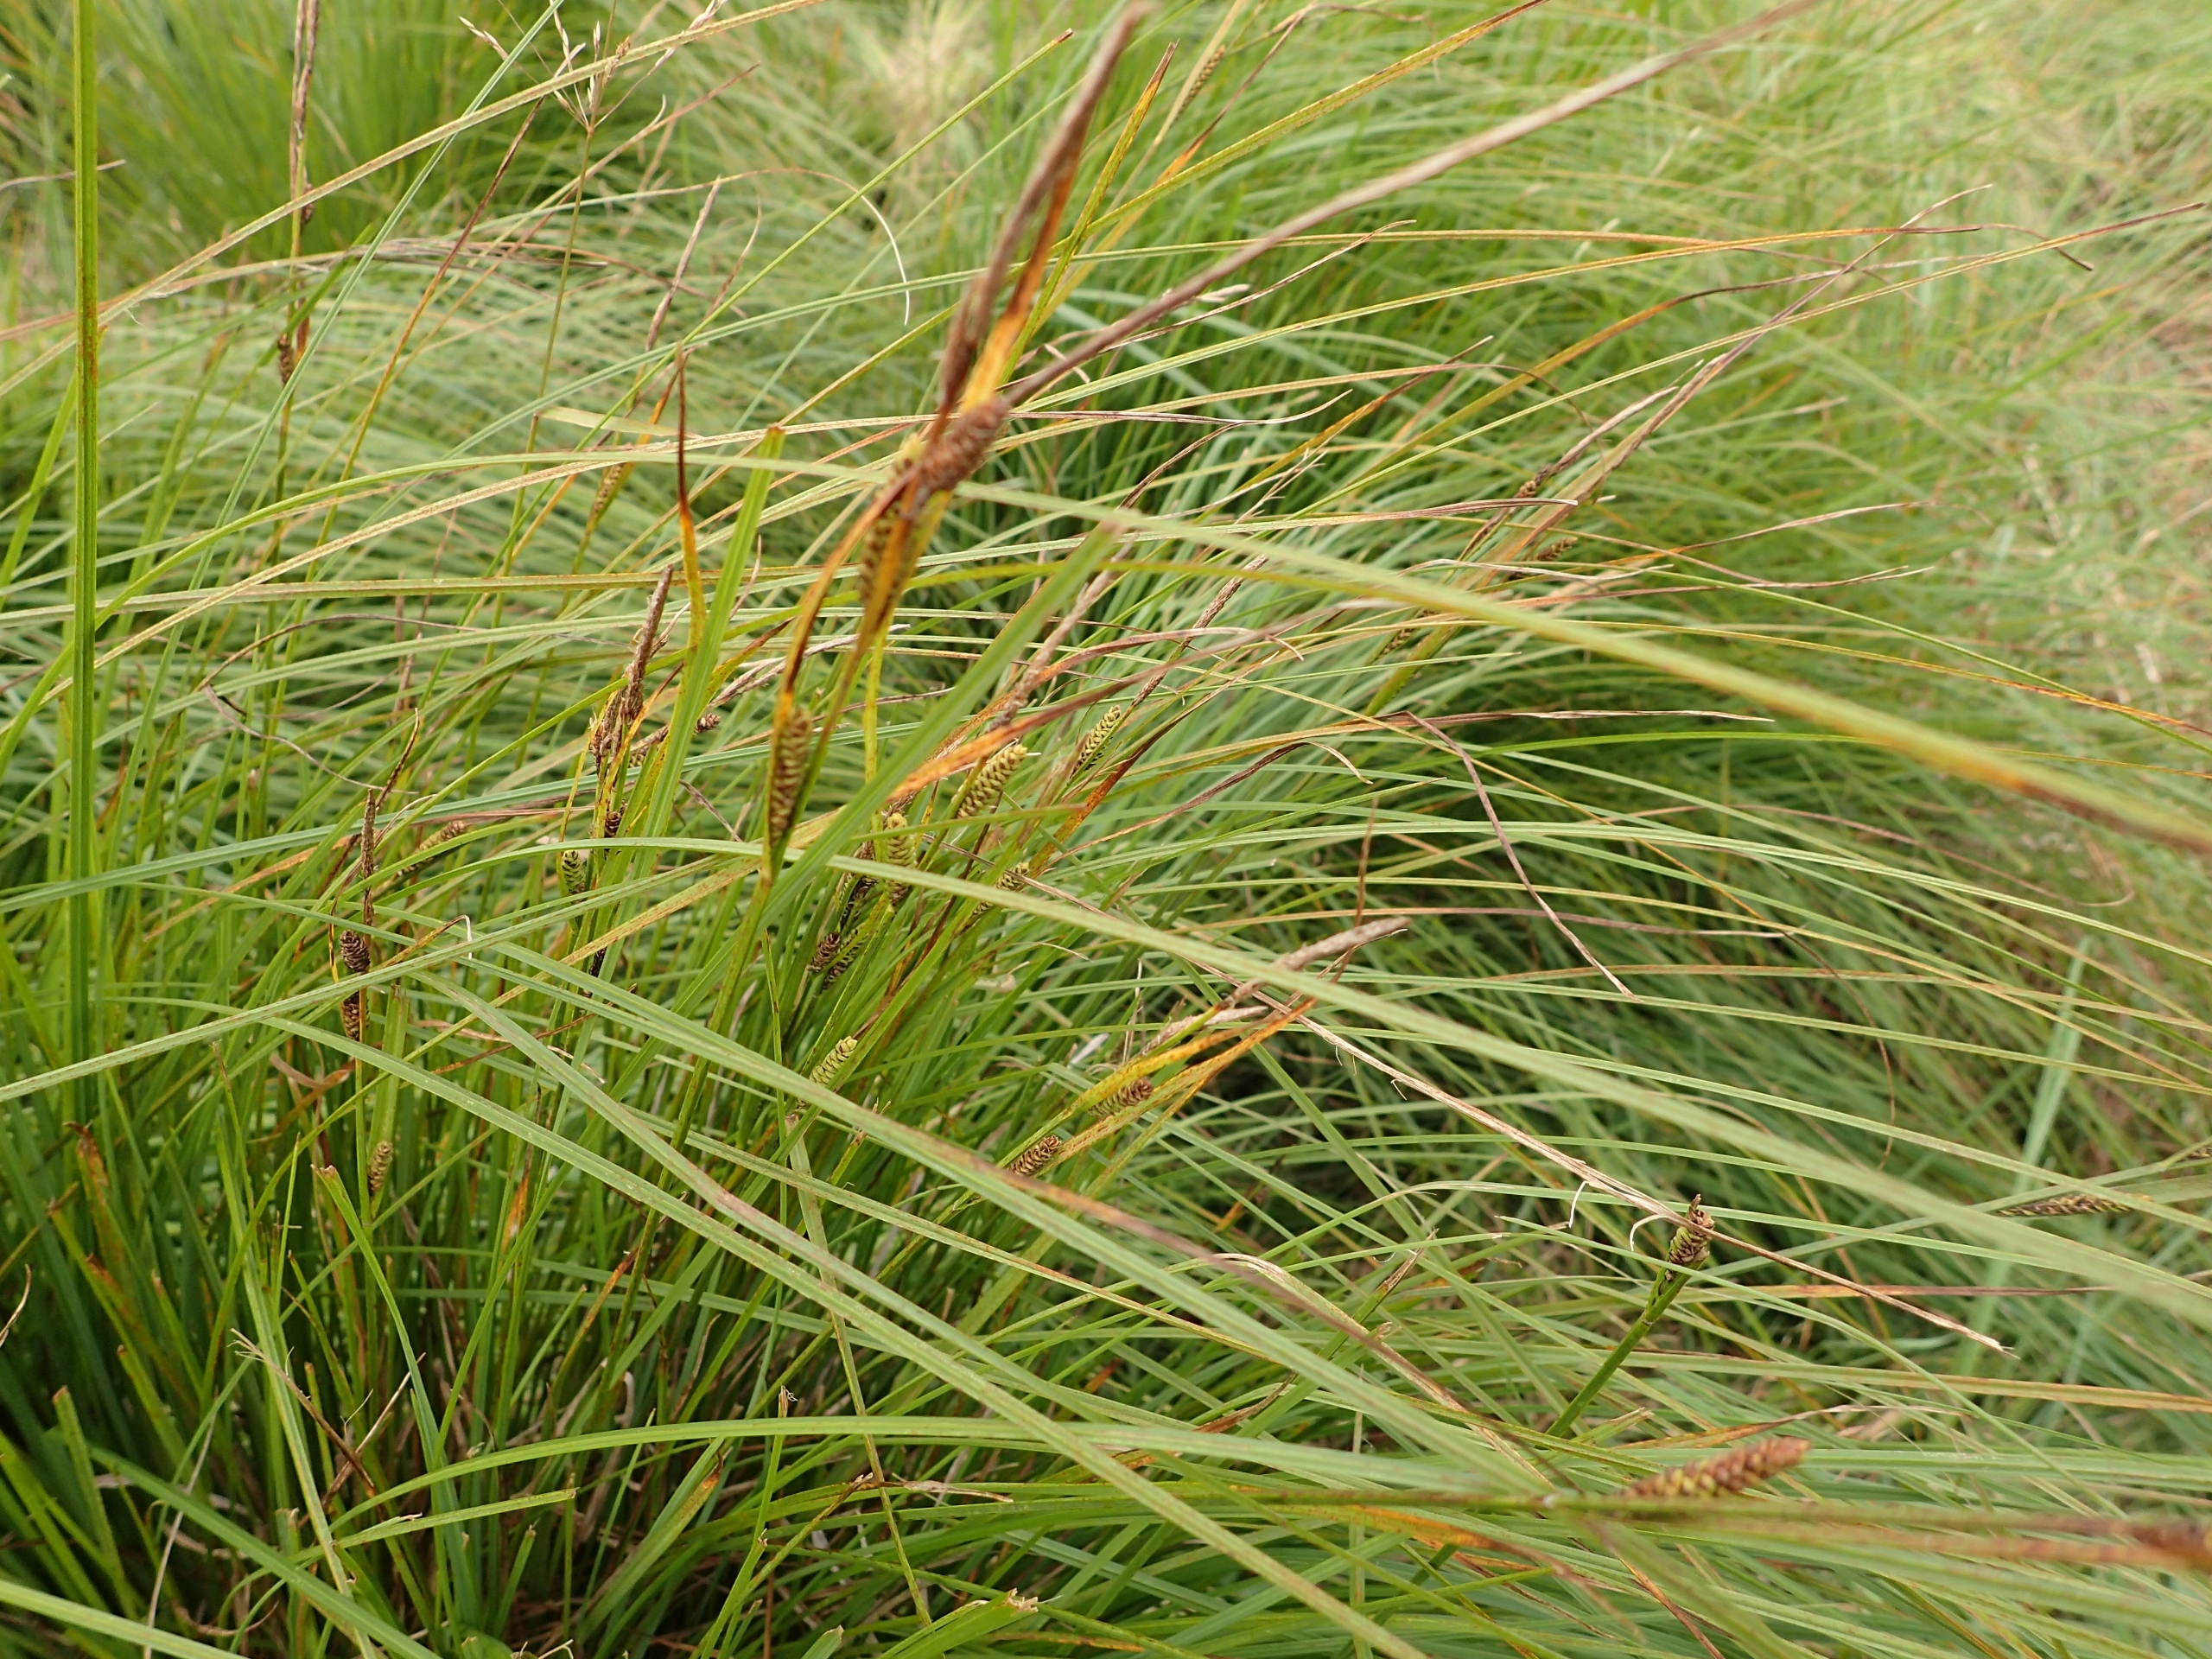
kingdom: Plantae
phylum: Tracheophyta
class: Liliopsida
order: Poales
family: Cyperaceae
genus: Carex
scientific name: Carex nigra
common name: Knold-star
